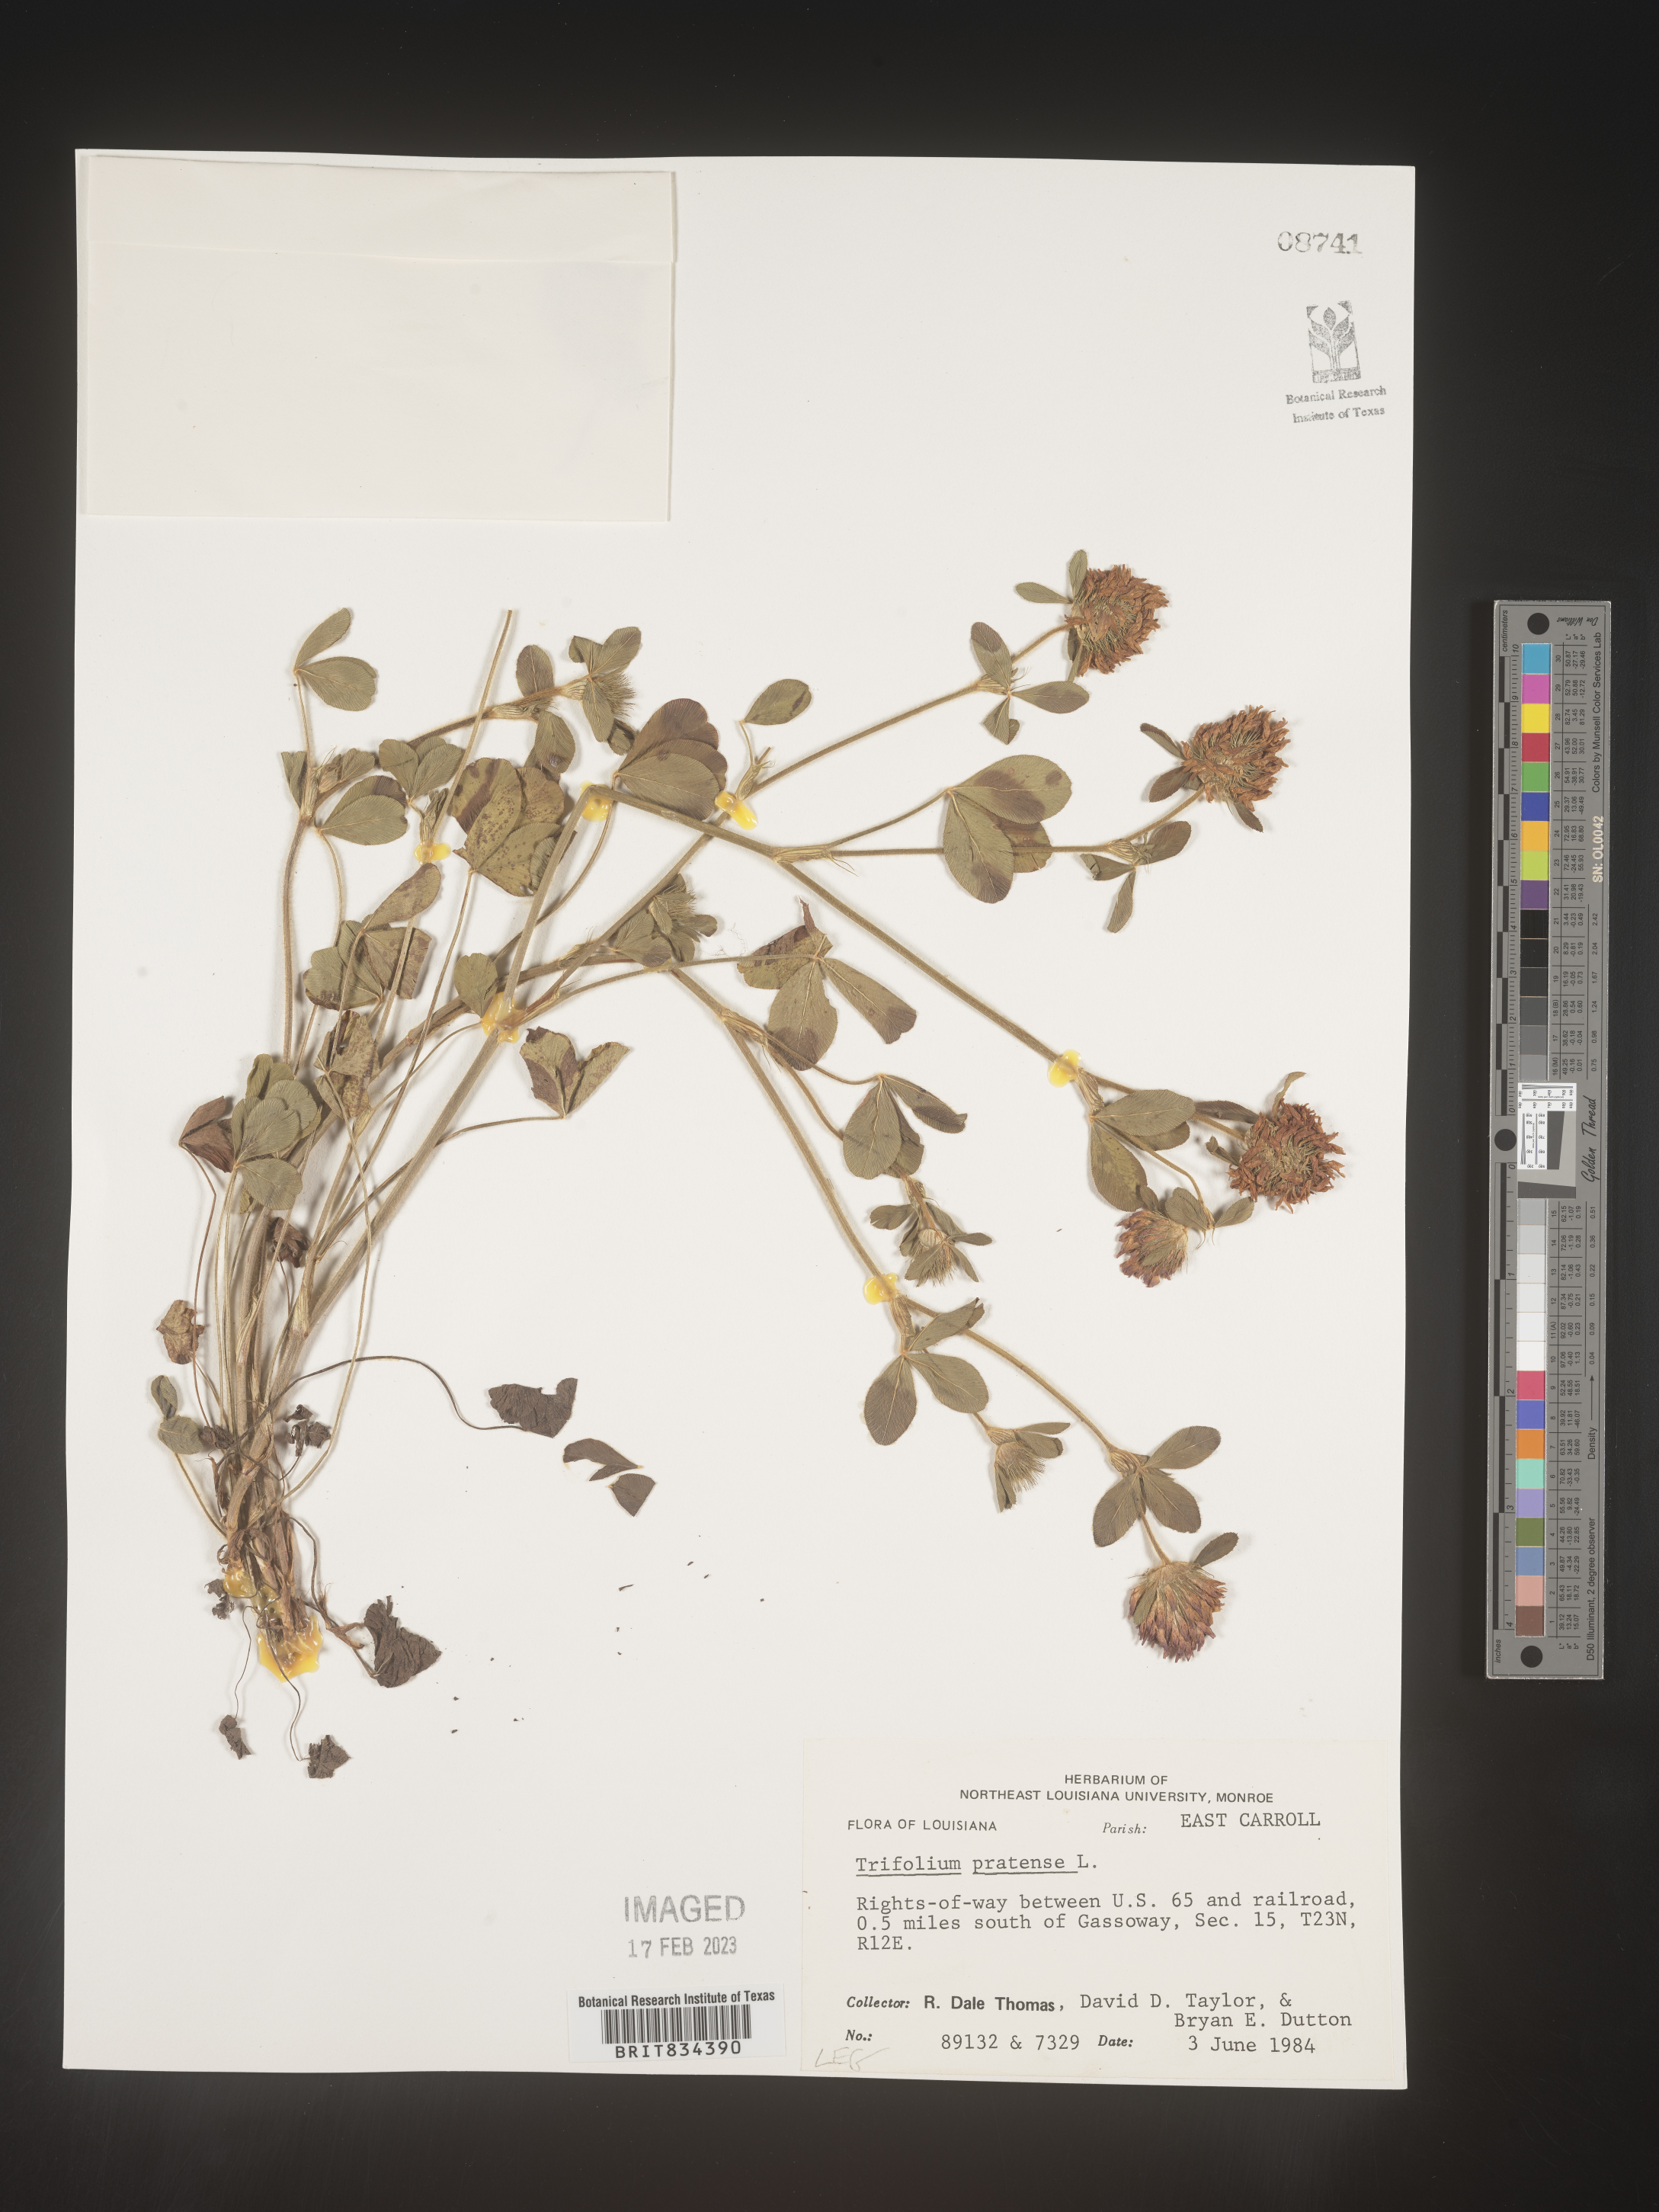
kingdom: Plantae
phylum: Tracheophyta
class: Magnoliopsida
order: Fabales
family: Fabaceae
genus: Trifolium
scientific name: Trifolium pratense
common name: Red clover
